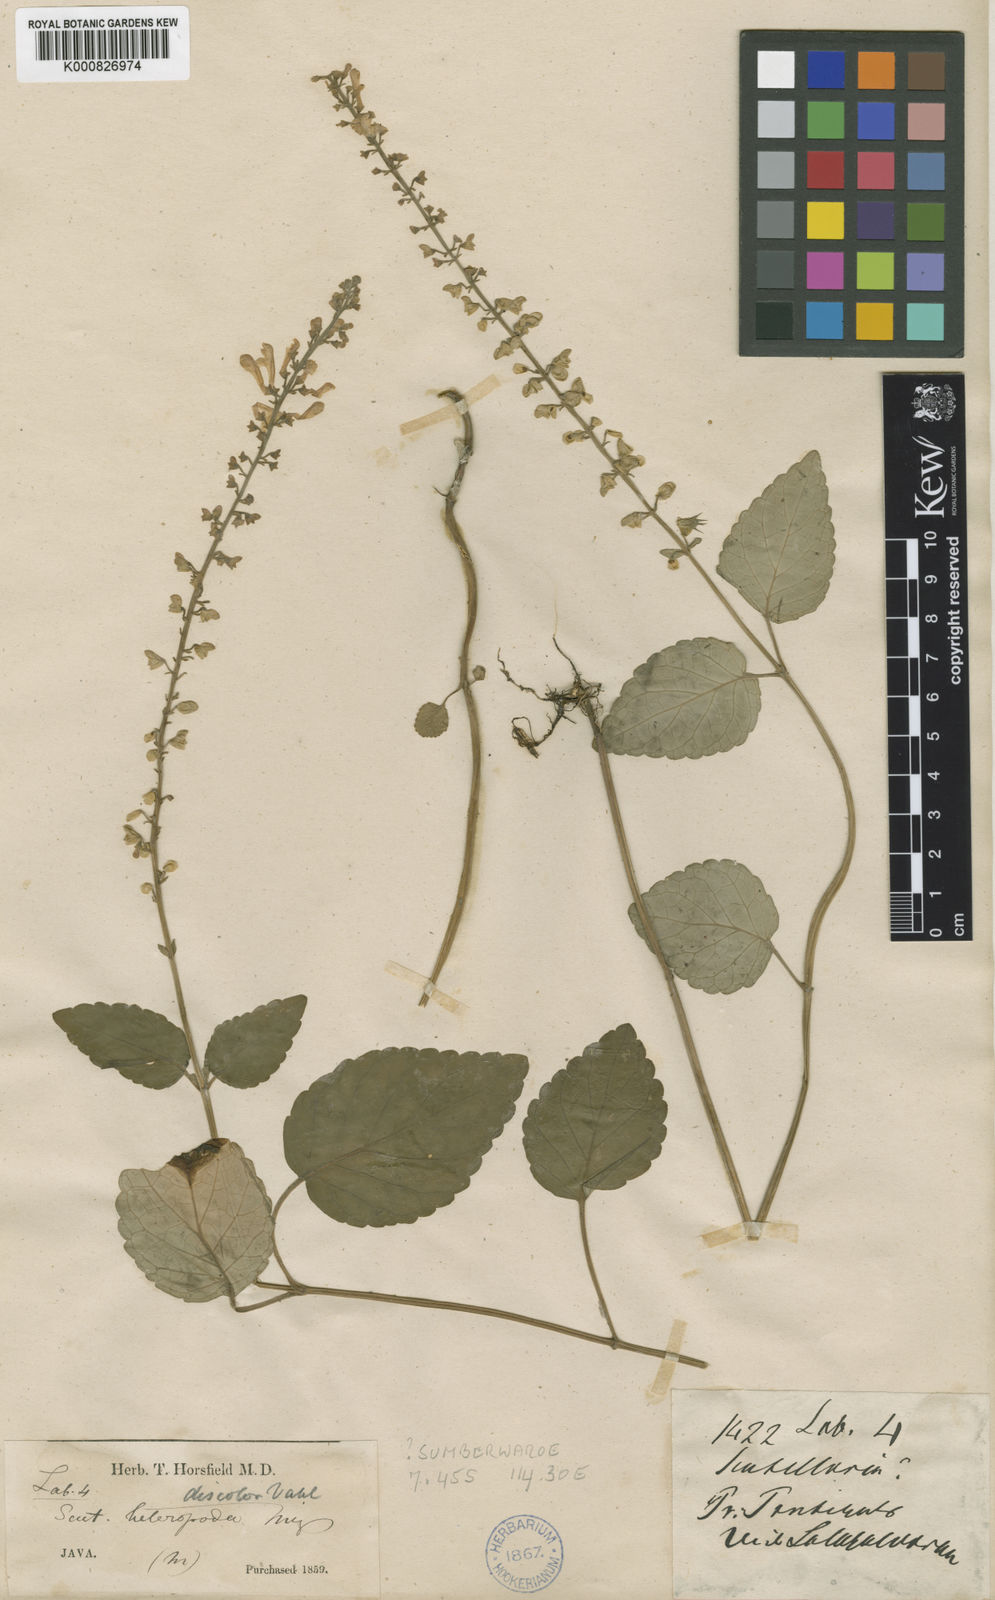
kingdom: Plantae
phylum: Tracheophyta
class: Magnoliopsida
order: Lamiales
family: Lamiaceae
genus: Scutellaria
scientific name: Scutellaria
